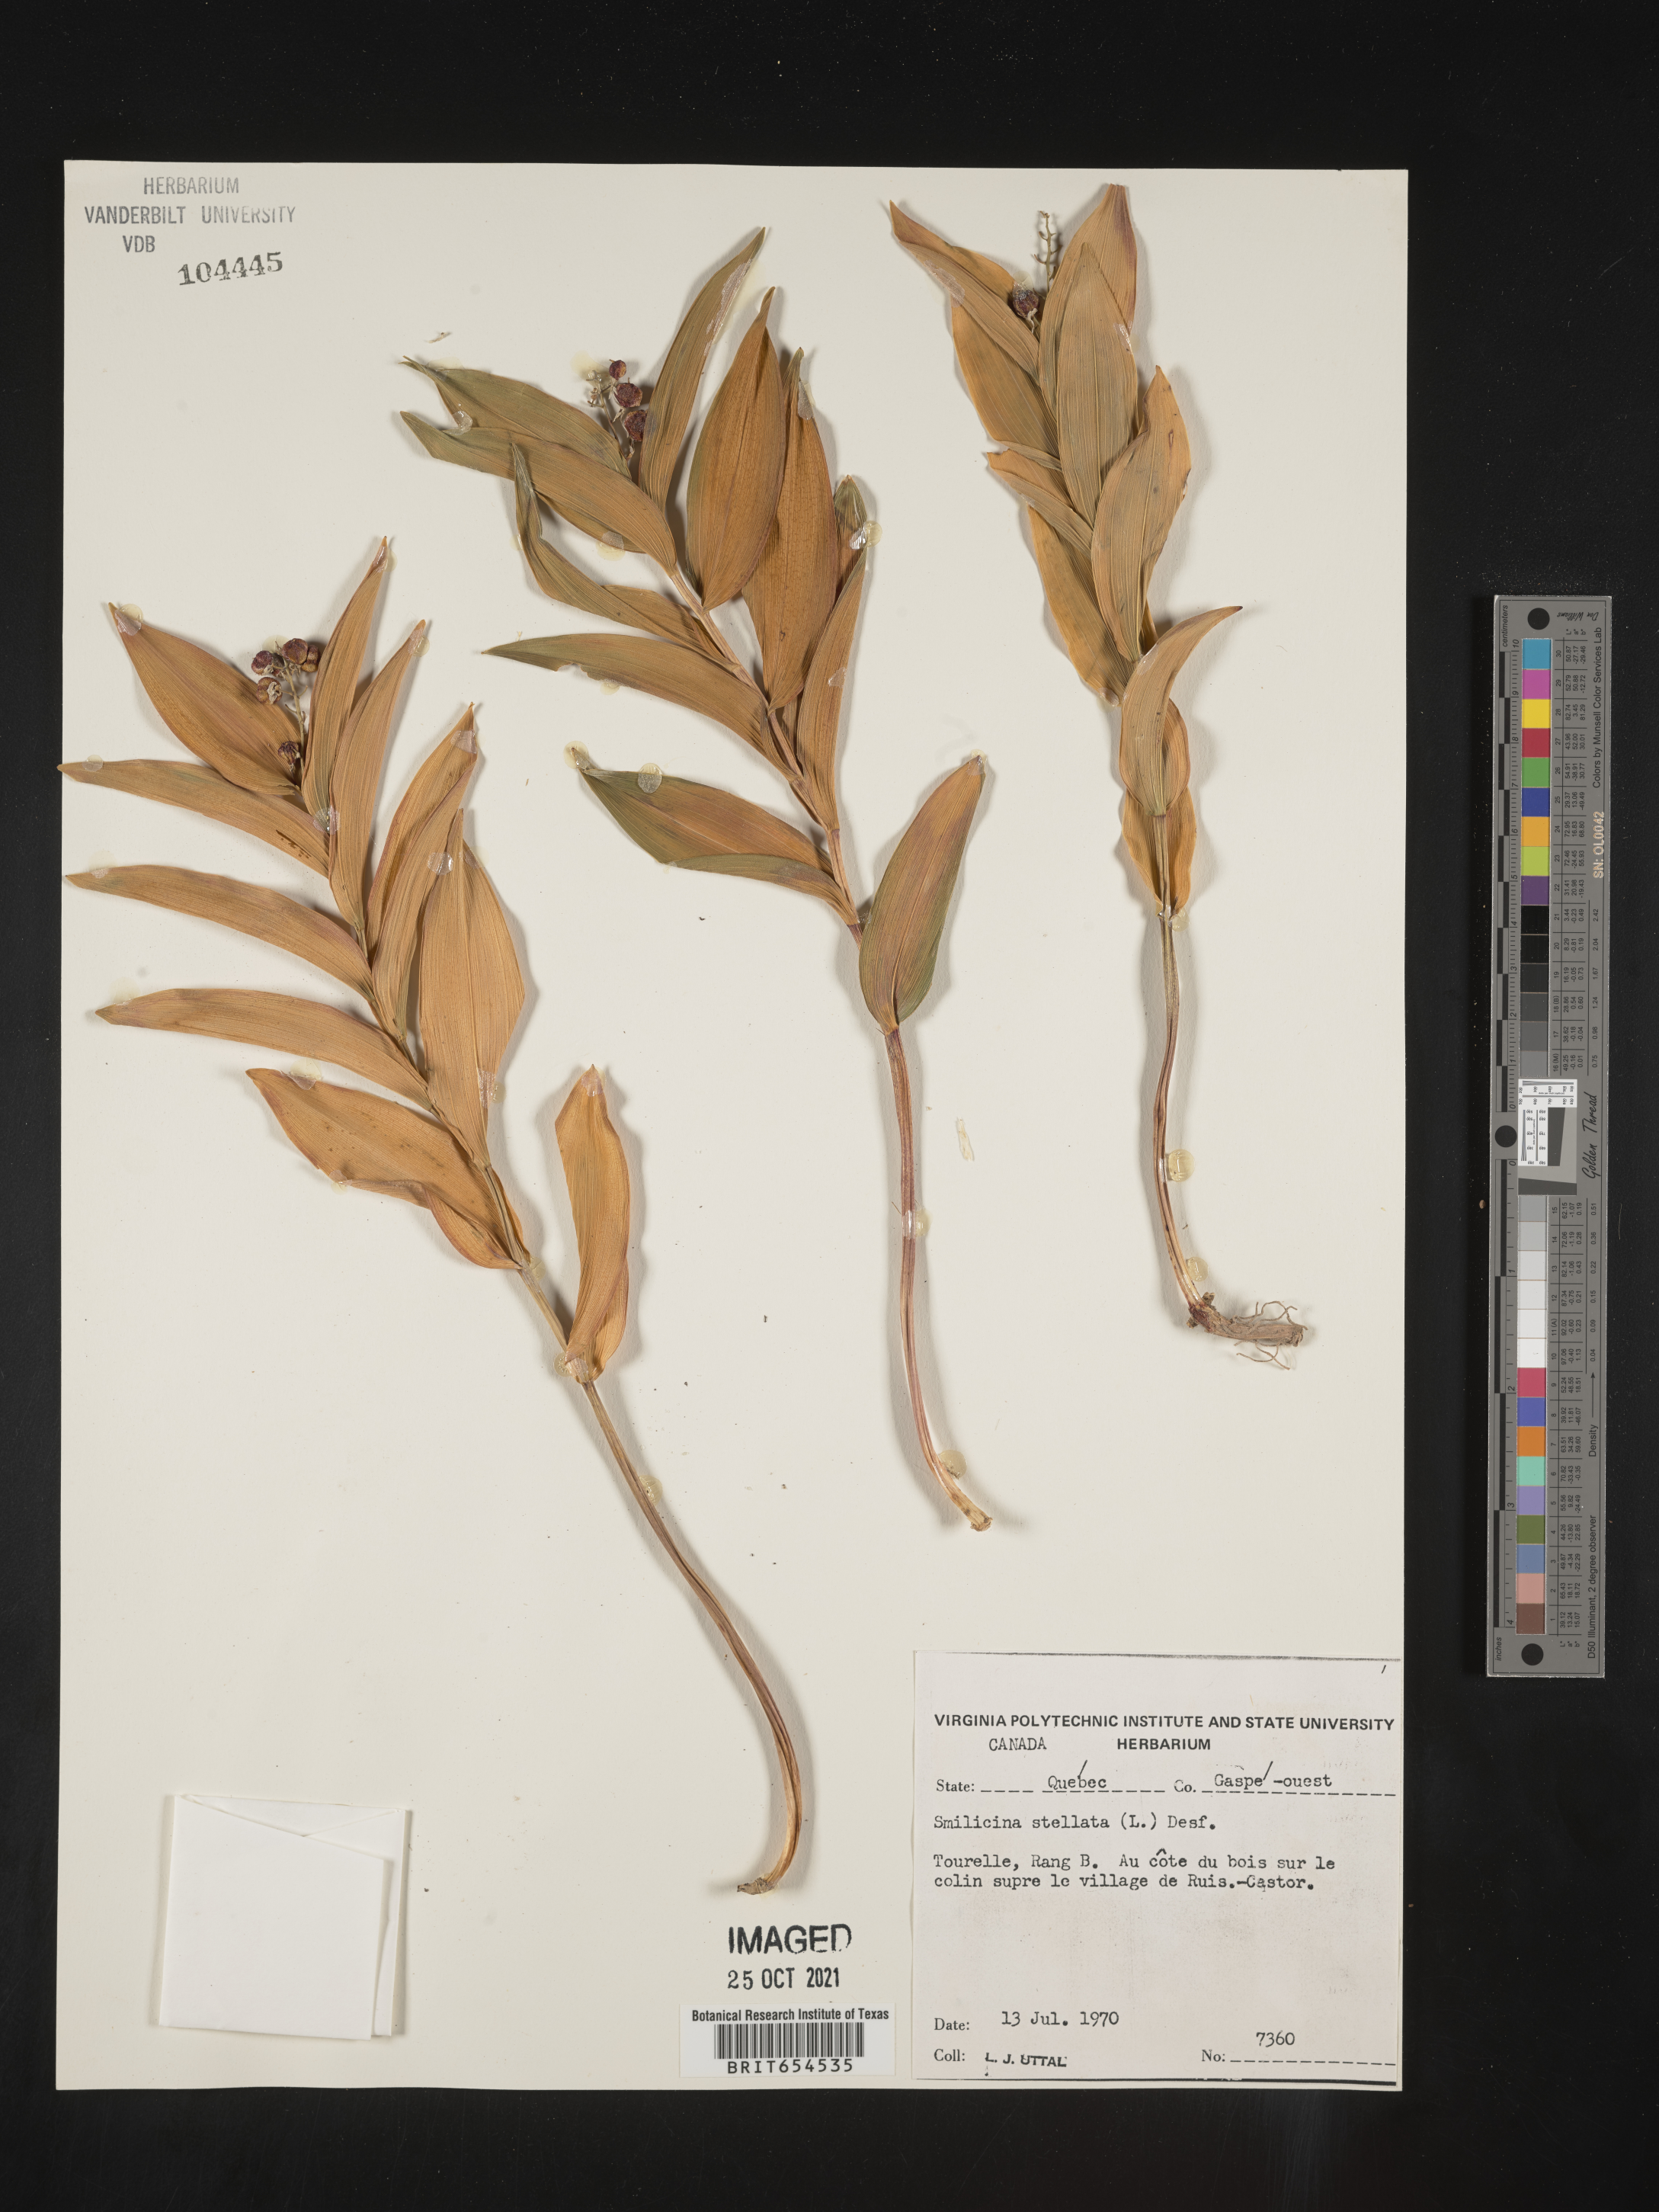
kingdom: Plantae
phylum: Tracheophyta
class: Liliopsida
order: Asparagales
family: Asparagaceae
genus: Maianthemum
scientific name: Maianthemum stellatum
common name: Little false solomon's seal
